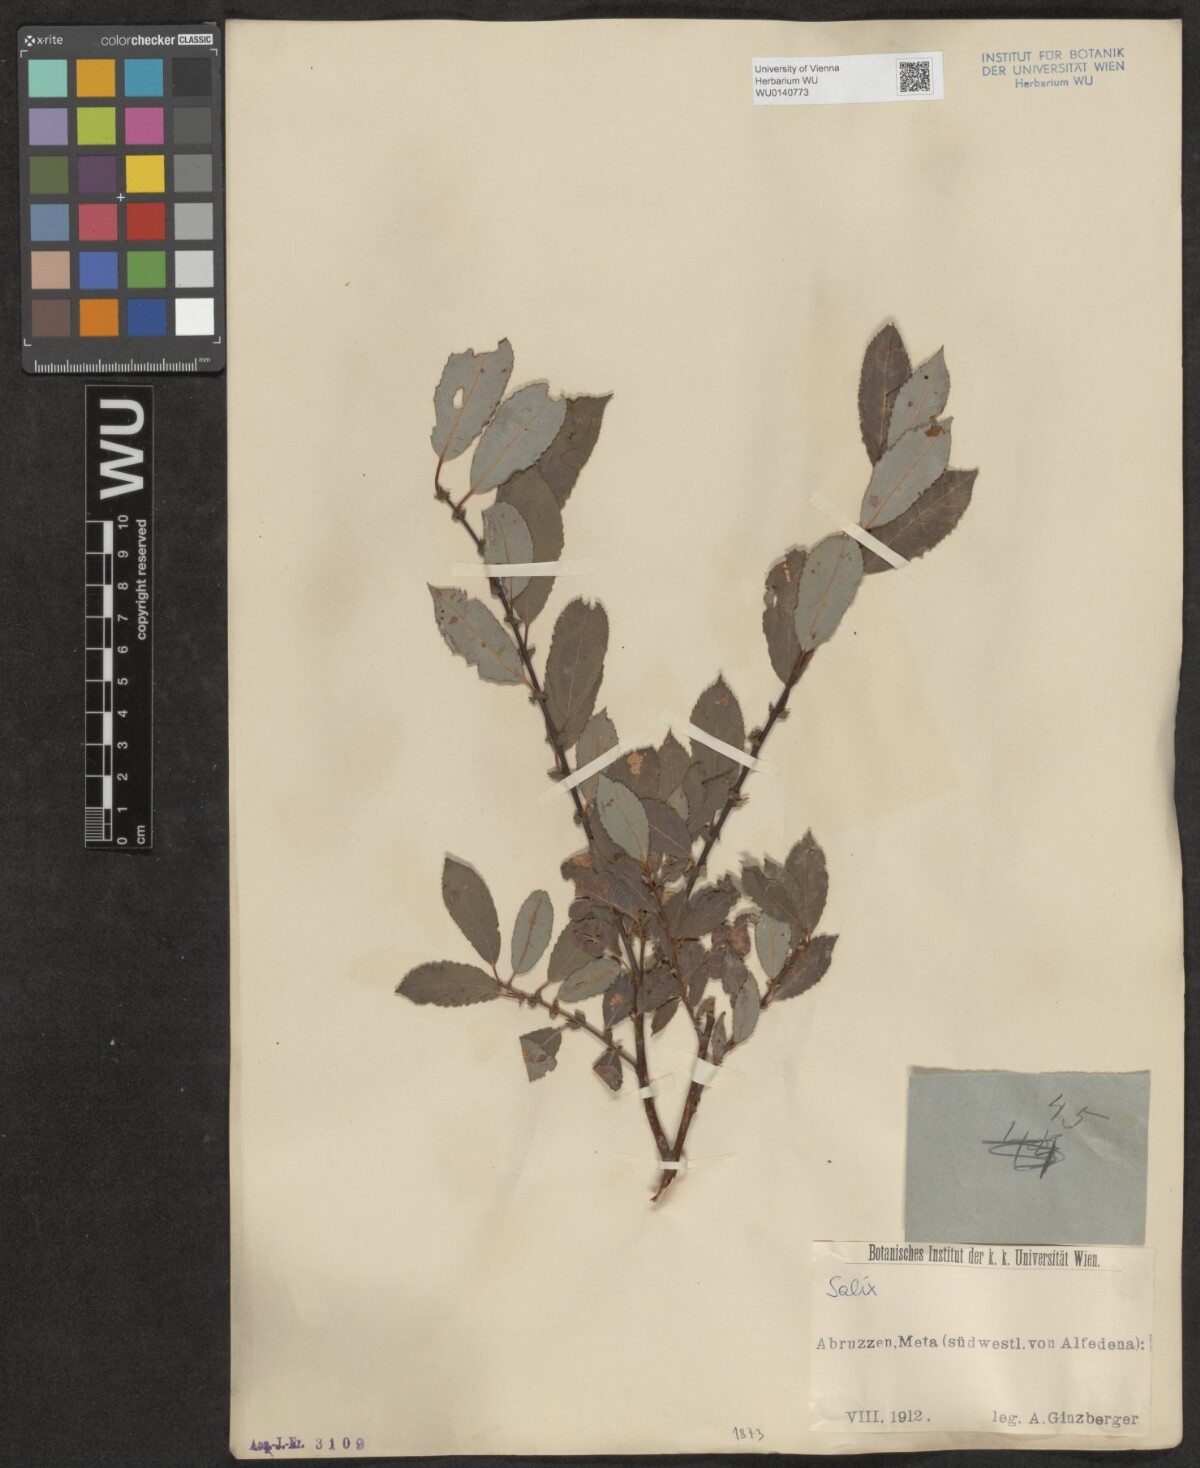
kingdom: Plantae
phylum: Tracheophyta
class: Magnoliopsida
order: Malpighiales
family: Salicaceae
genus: Salix
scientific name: Salix
